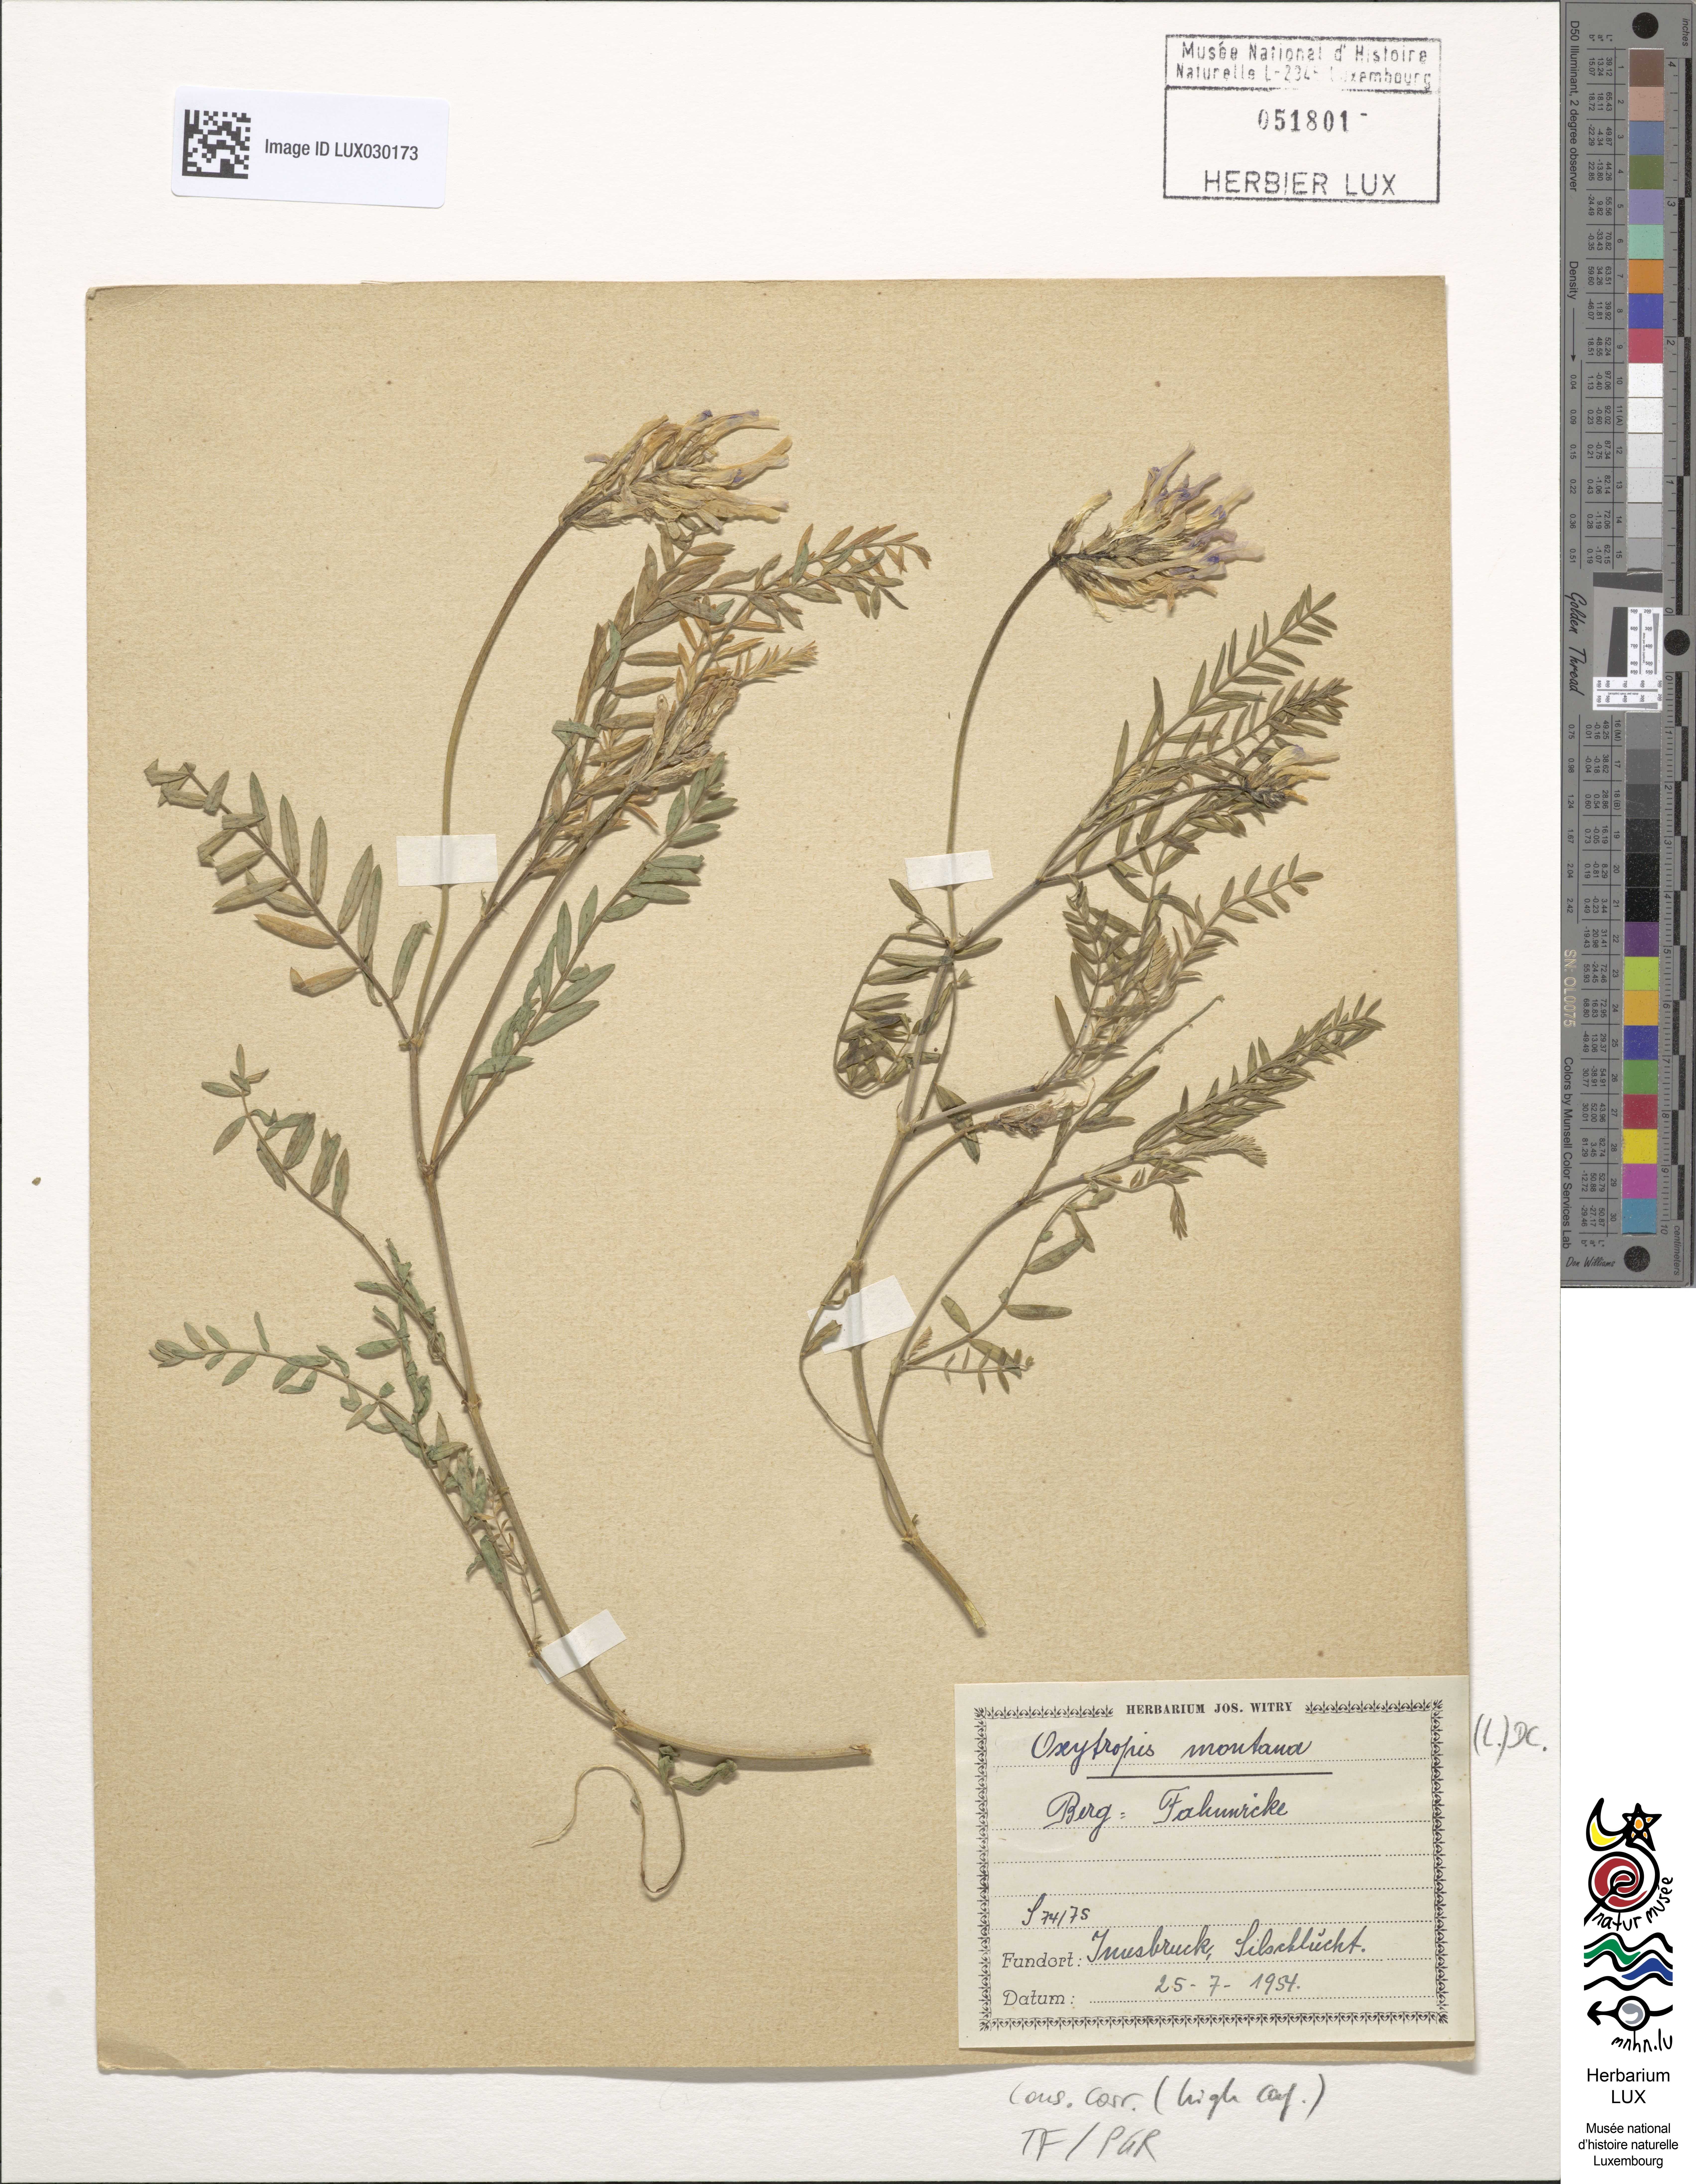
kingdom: Plantae
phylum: Tracheophyta
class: Magnoliopsida
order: Fabales
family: Fabaceae
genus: Oxytropis
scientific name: Oxytropis montana
